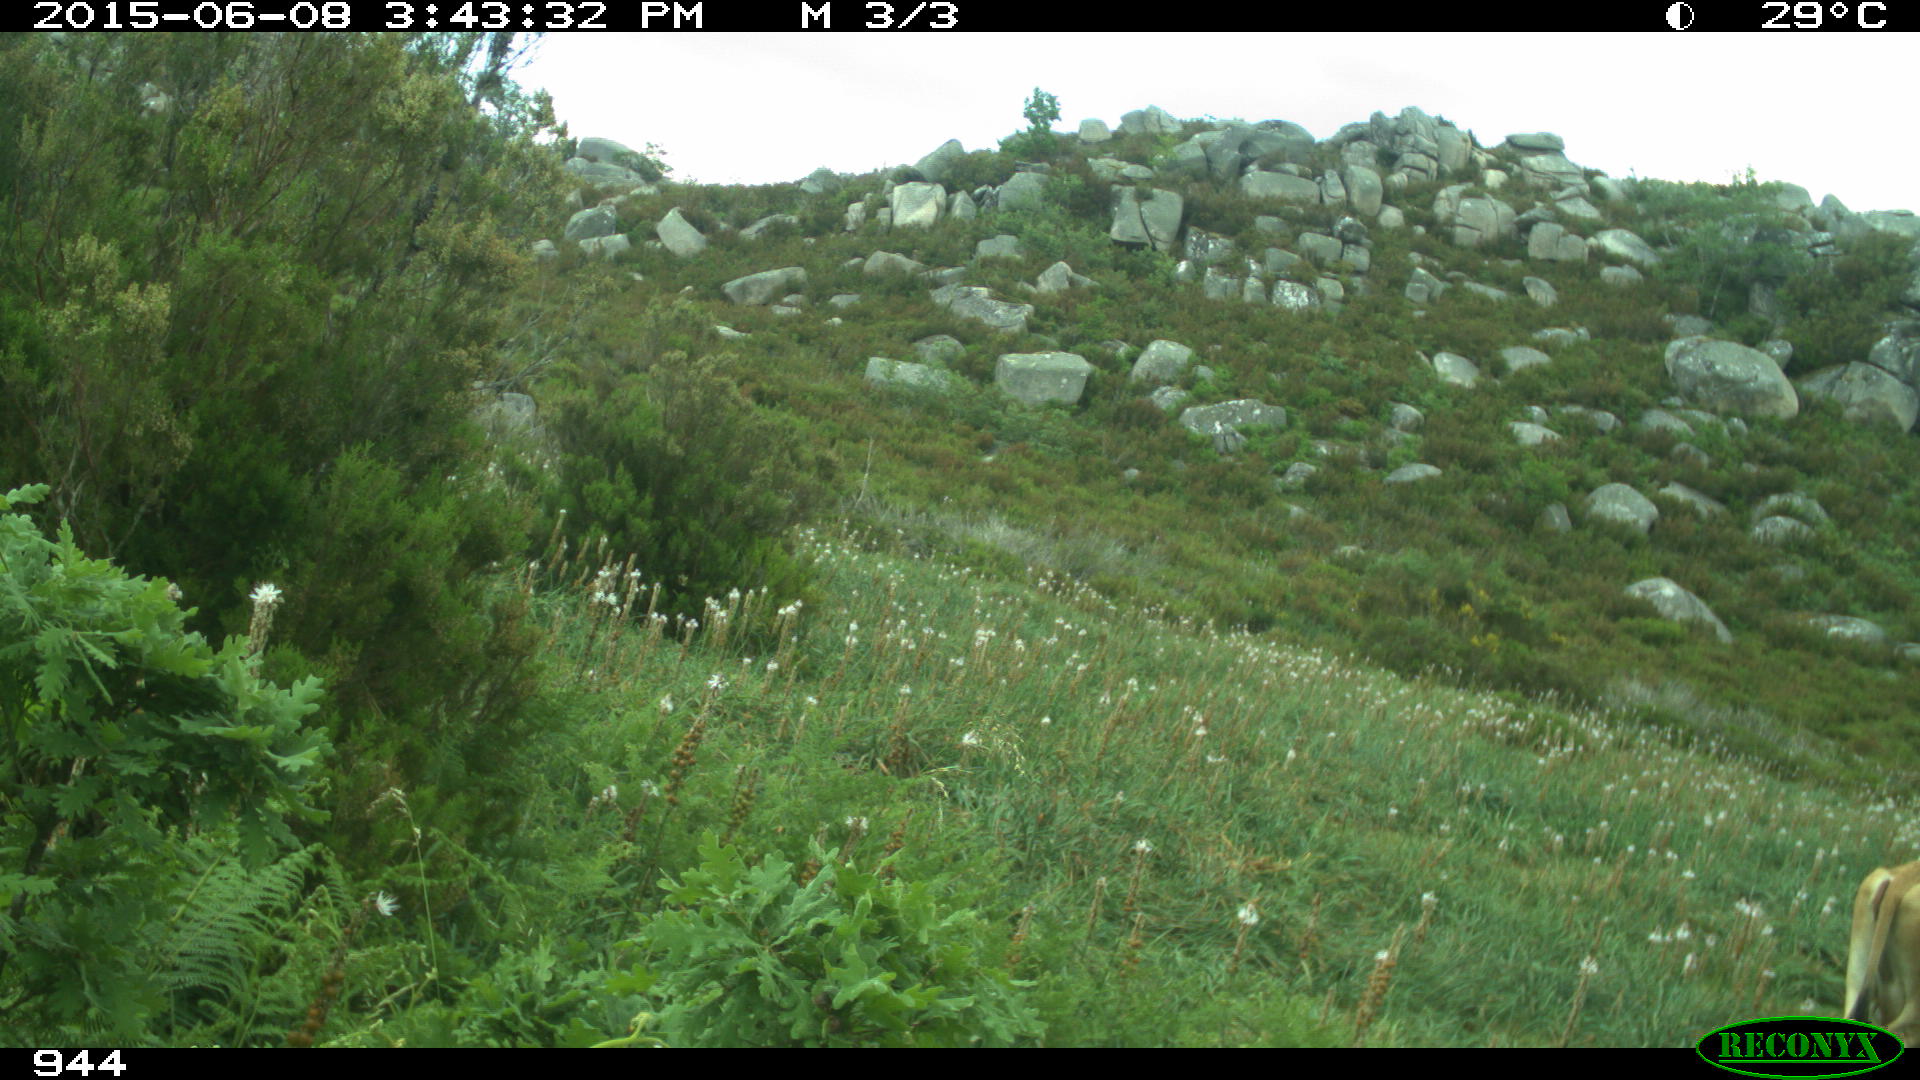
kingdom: Animalia
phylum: Chordata
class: Mammalia
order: Artiodactyla
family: Bovidae
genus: Bos
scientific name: Bos taurus
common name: Domesticated cattle
